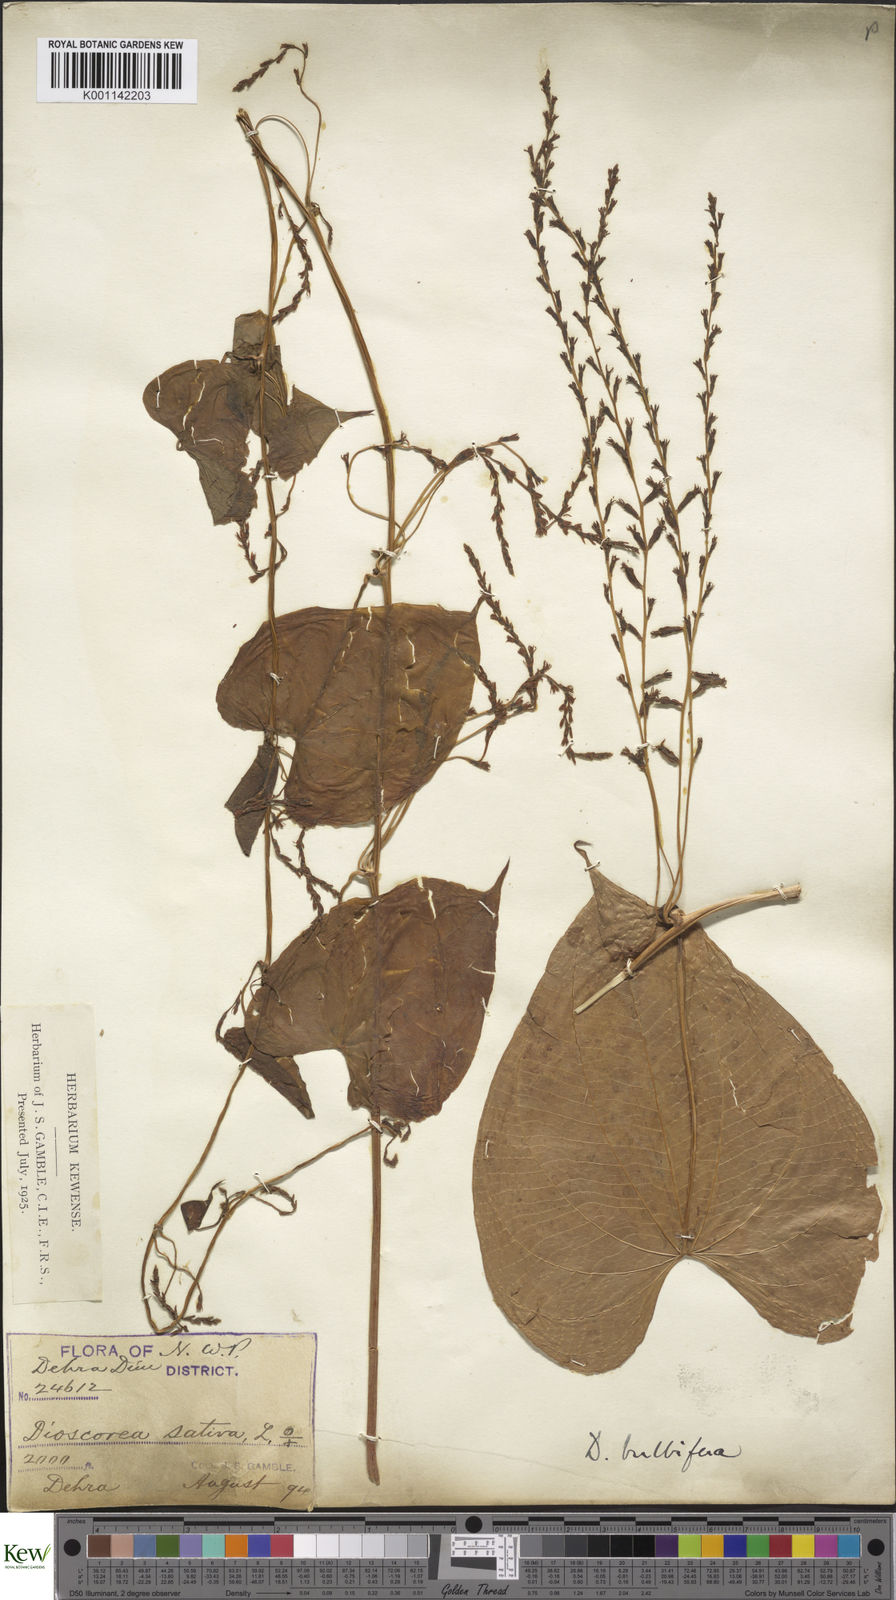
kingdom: Plantae
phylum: Tracheophyta
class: Liliopsida
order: Dioscoreales
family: Dioscoreaceae
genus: Dioscorea
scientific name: Dioscorea bulbifera
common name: Air yam
